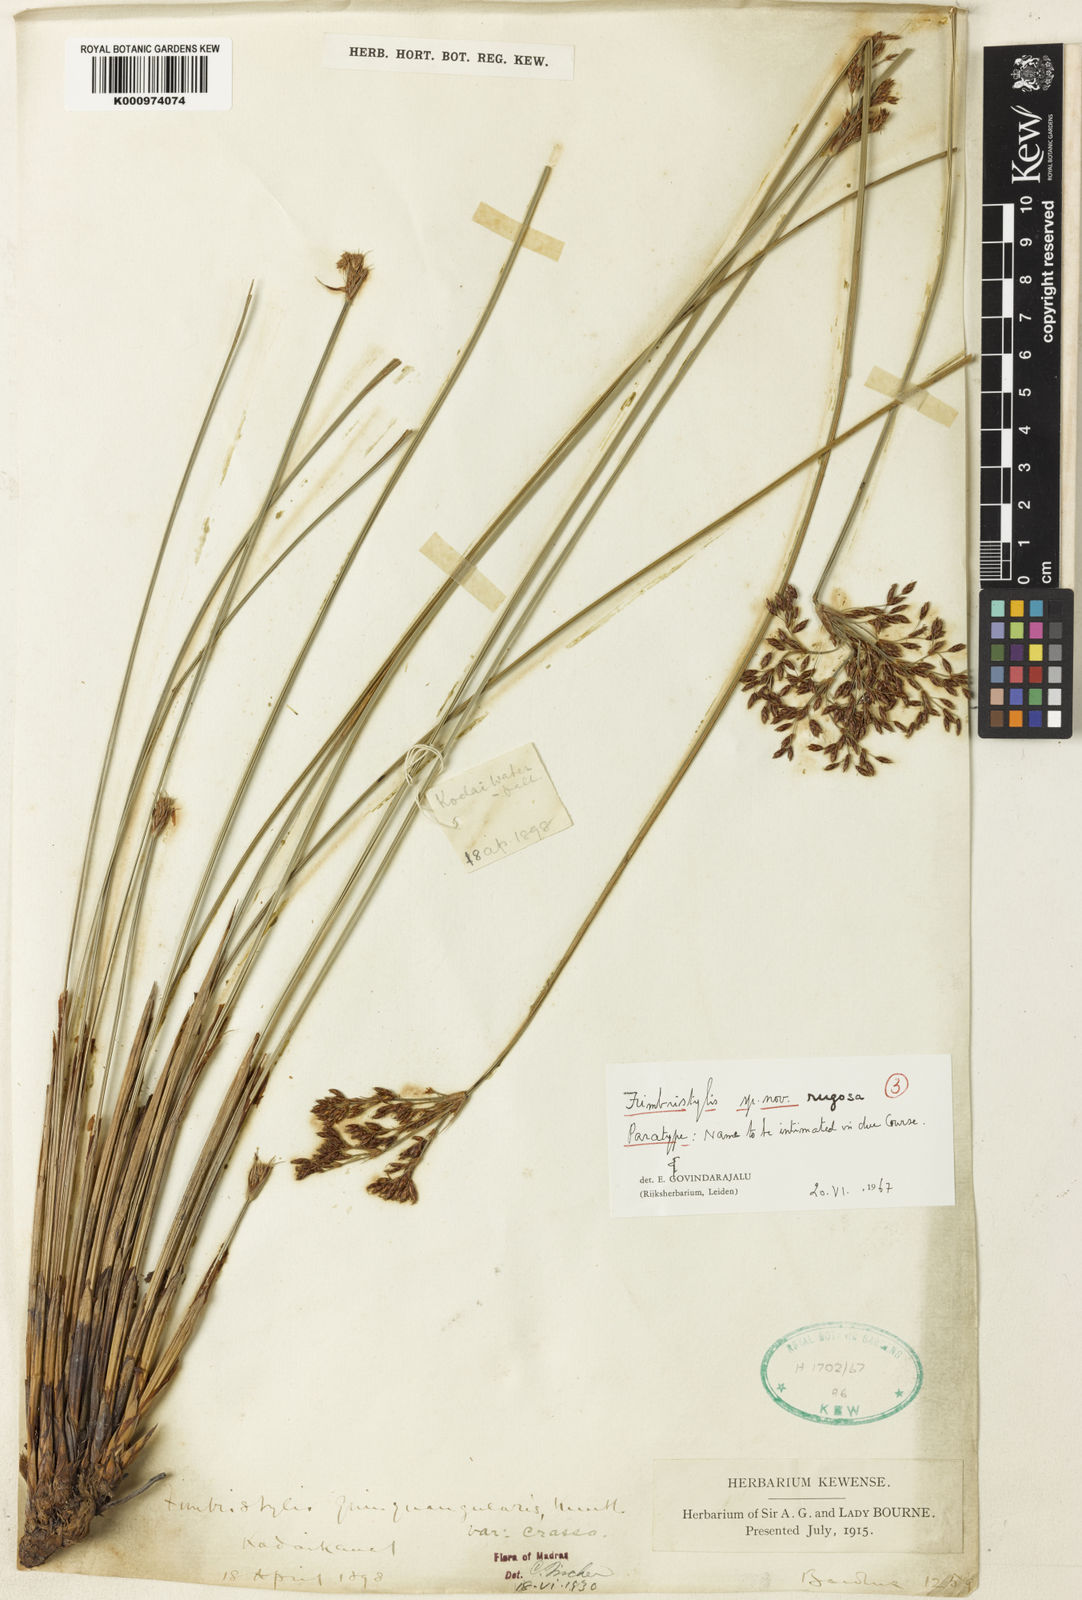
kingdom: Plantae
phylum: Tracheophyta
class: Liliopsida
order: Poales
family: Cyperaceae
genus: Fimbristylis
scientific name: Fimbristylis rugosa
